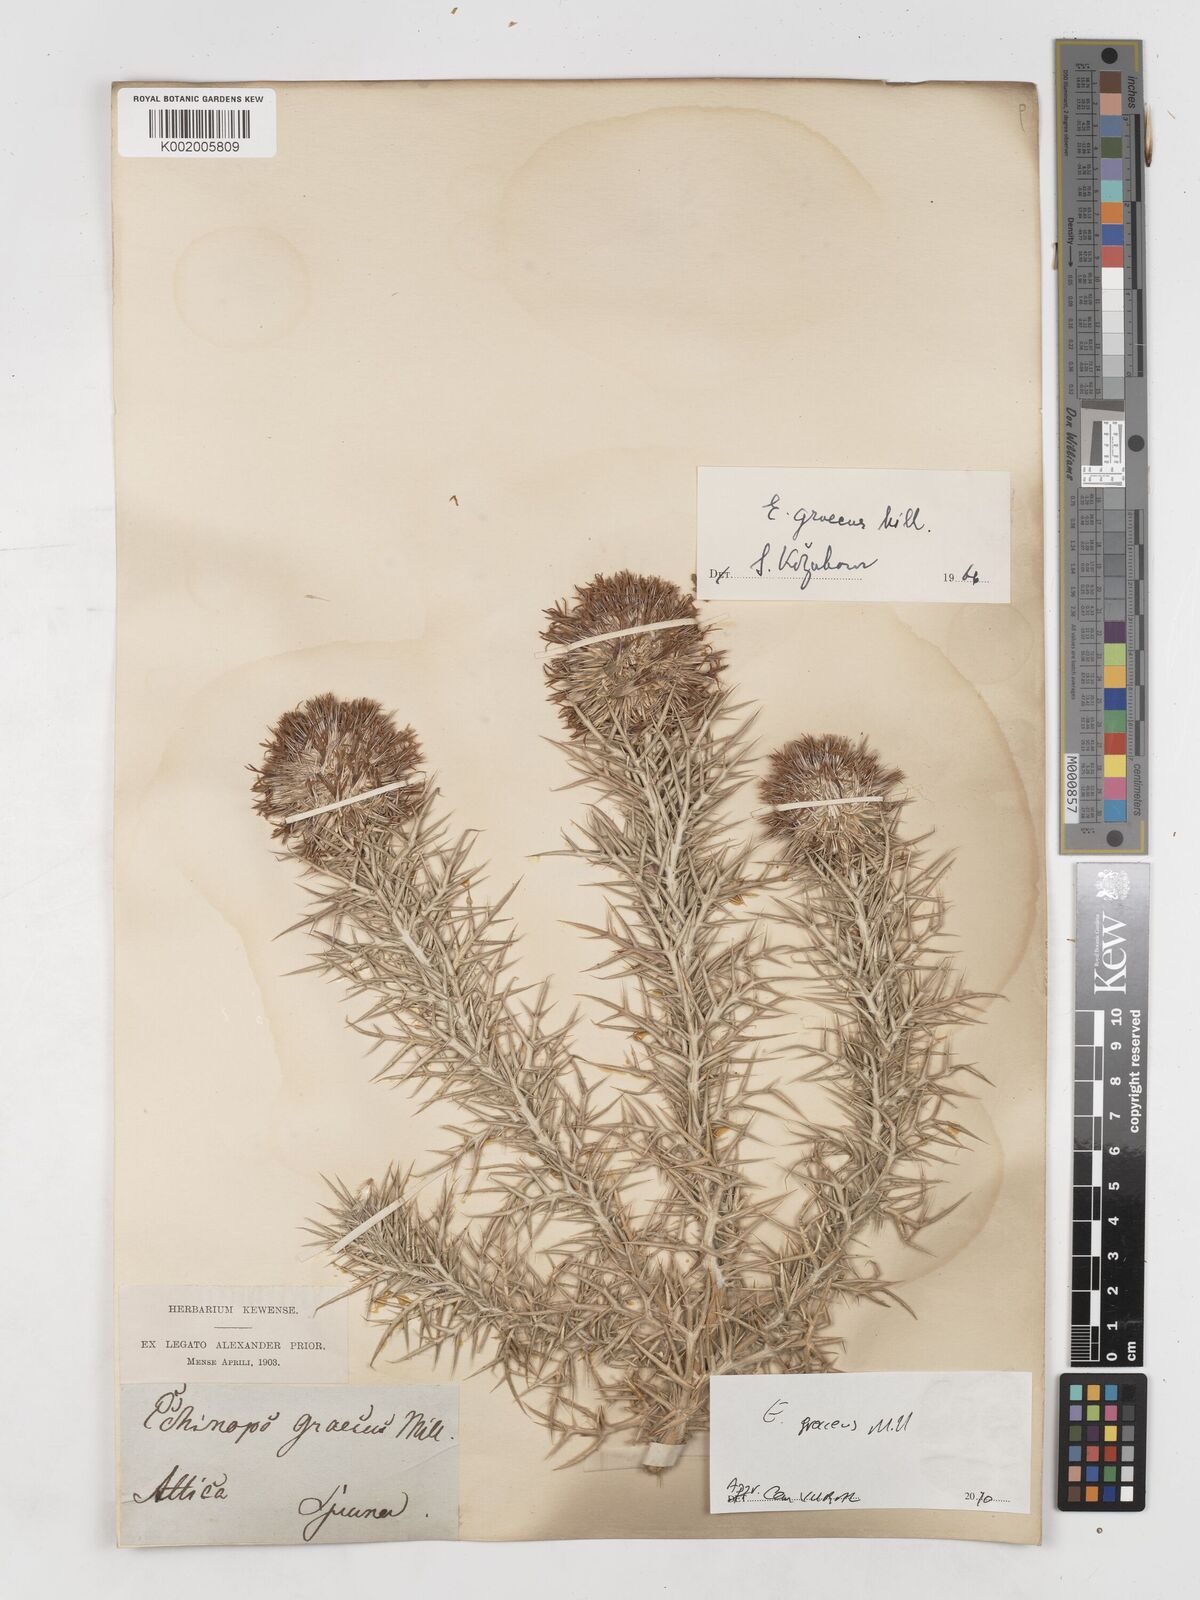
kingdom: Plantae
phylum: Tracheophyta
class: Magnoliopsida
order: Asterales
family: Asteraceae
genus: Echinops
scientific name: Echinops graecus
